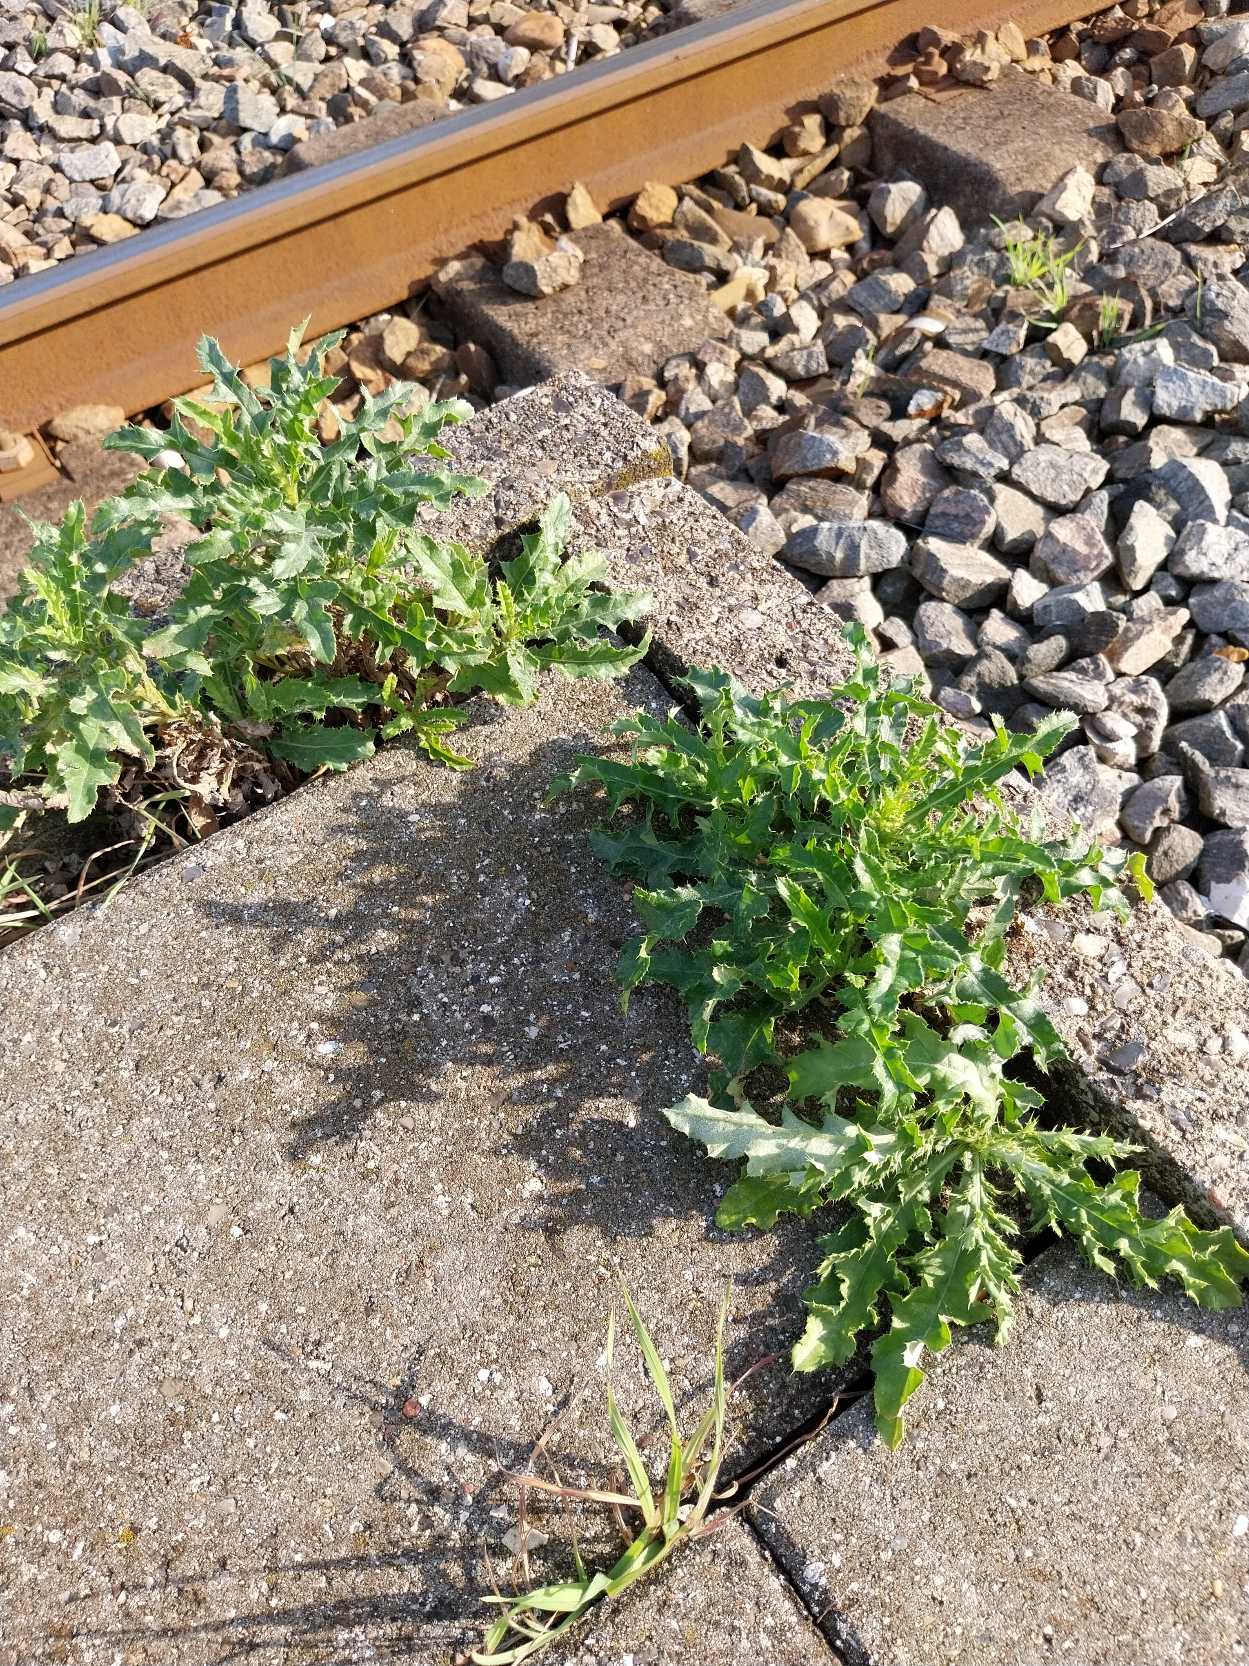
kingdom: Plantae
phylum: Tracheophyta
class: Magnoliopsida
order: Asterales
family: Asteraceae
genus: Cirsium
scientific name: Cirsium arvense
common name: Ager-tidsel
